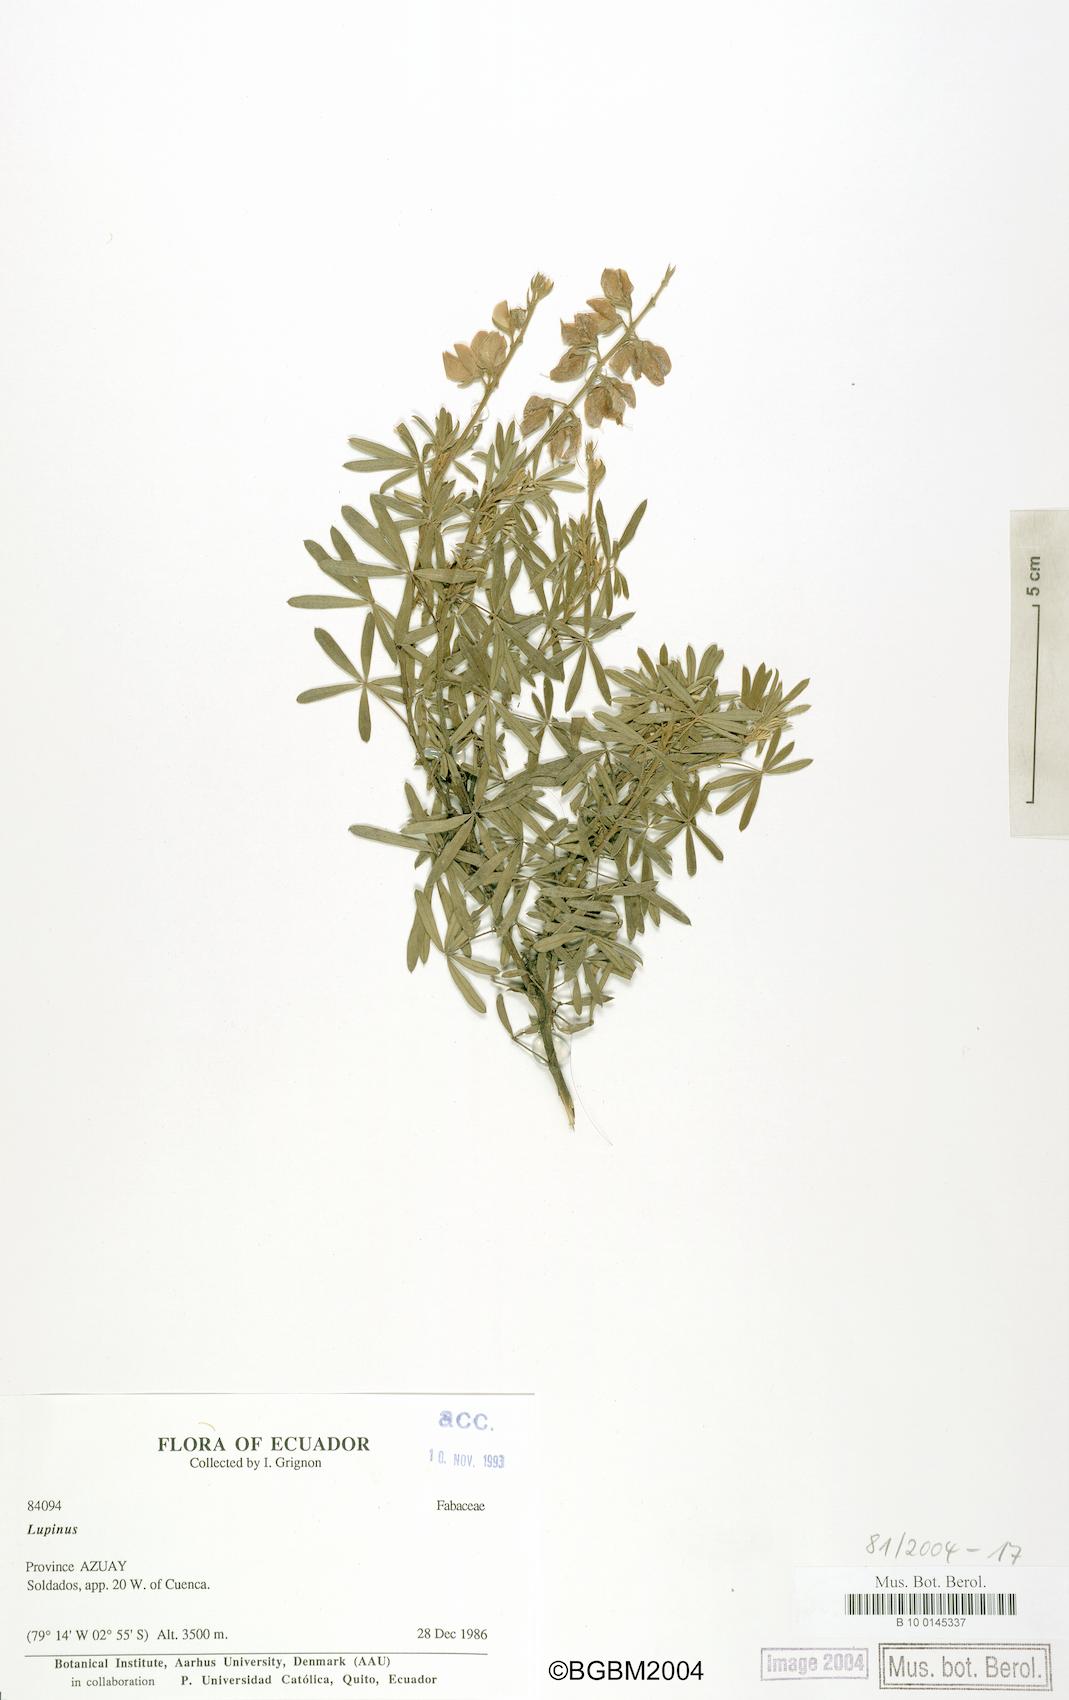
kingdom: Plantae
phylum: Tracheophyta
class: Magnoliopsida
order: Fabales
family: Fabaceae
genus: Lupinus
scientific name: Lupinus
